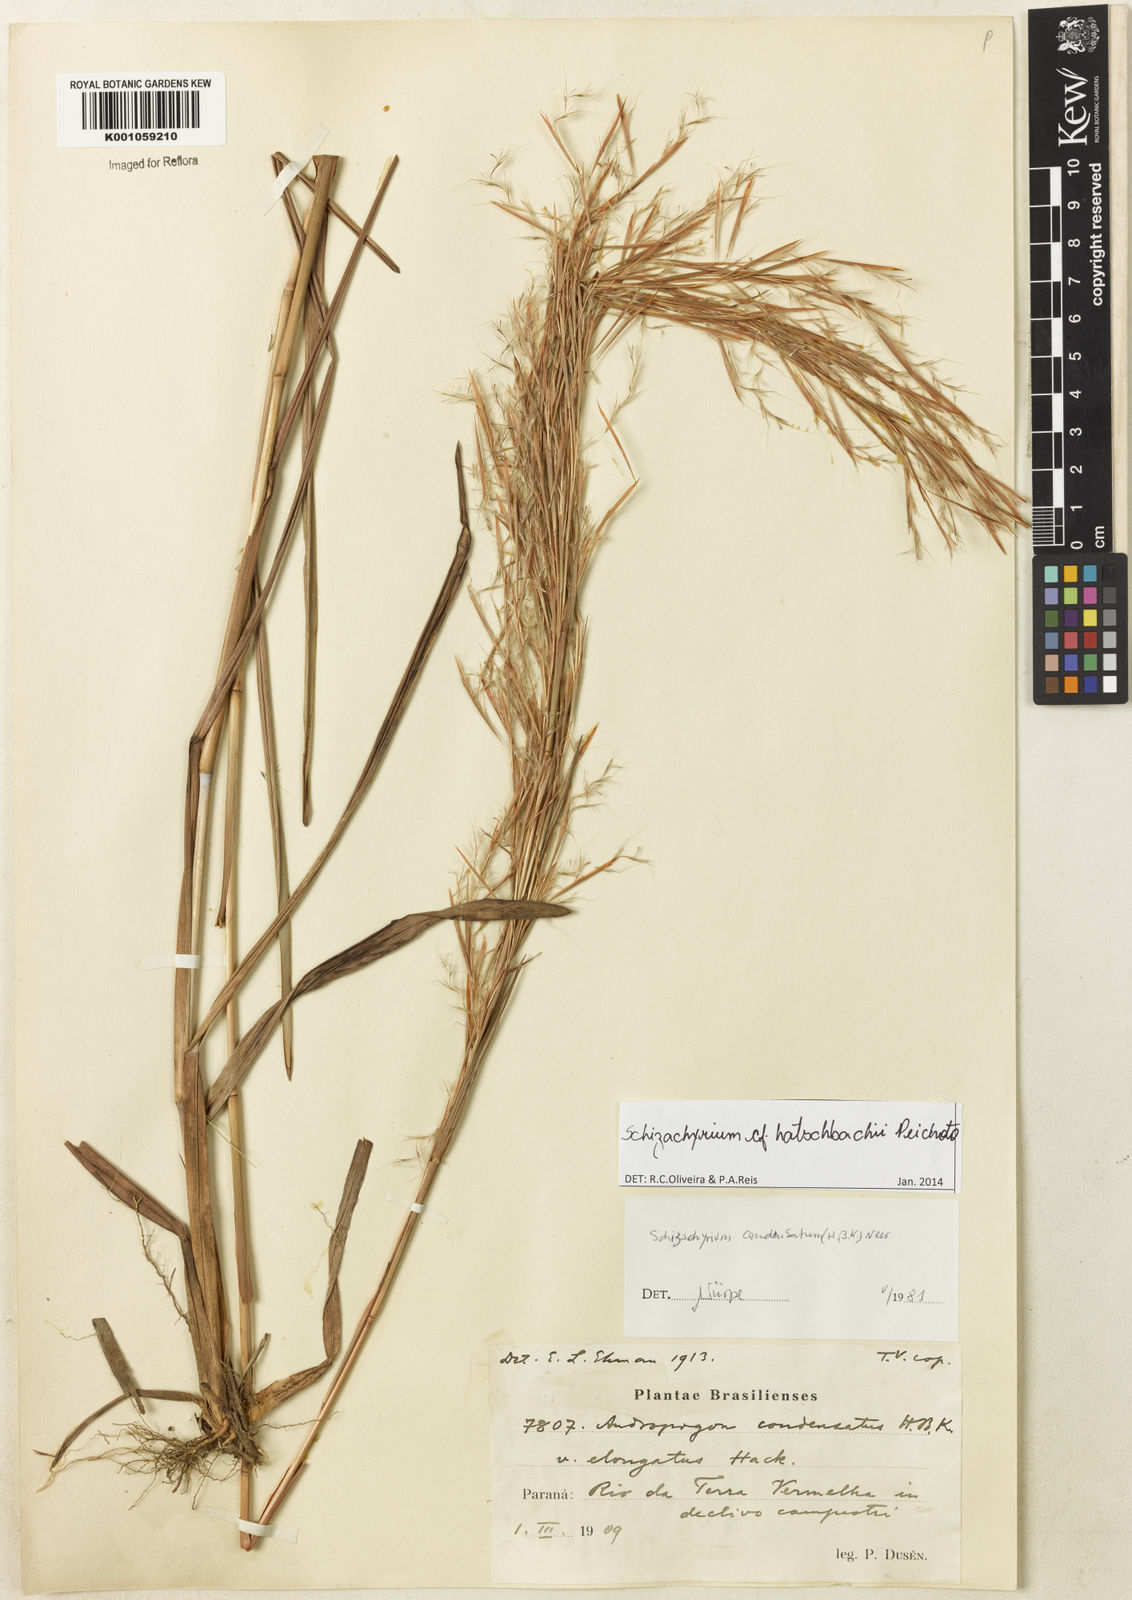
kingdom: Plantae
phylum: Tracheophyta
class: Liliopsida
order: Poales
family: Poaceae
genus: Schizachyrium
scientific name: Schizachyrium hatschbachii
